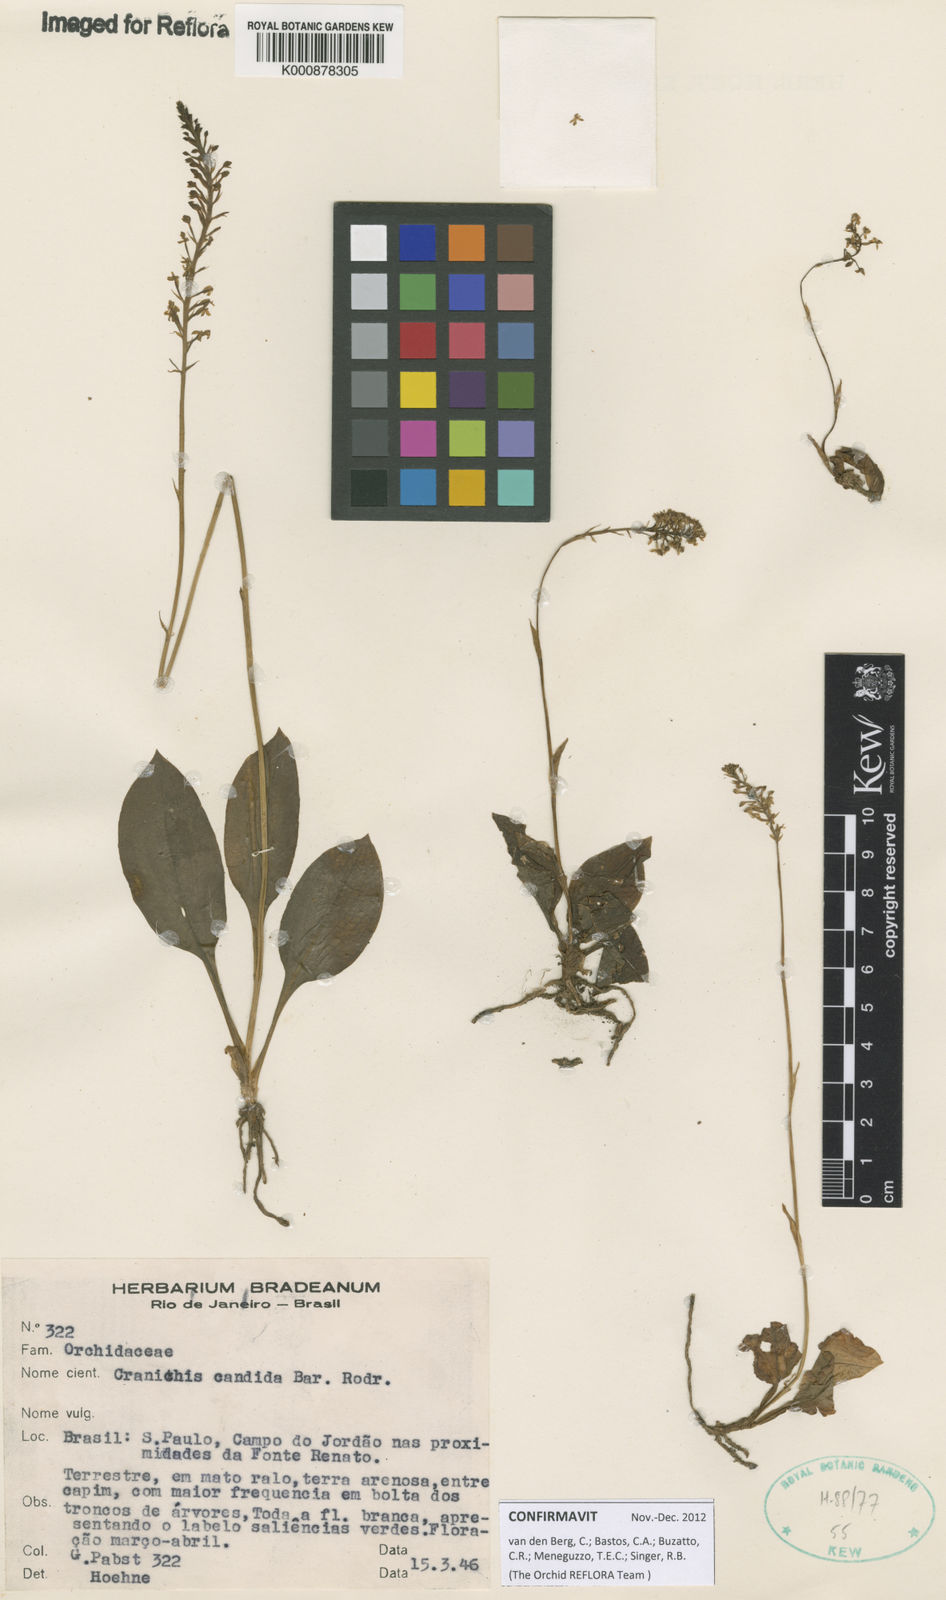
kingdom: Plantae
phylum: Tracheophyta
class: Liliopsida
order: Asparagales
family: Orchidaceae
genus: Cranichis
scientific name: Cranichis candida
